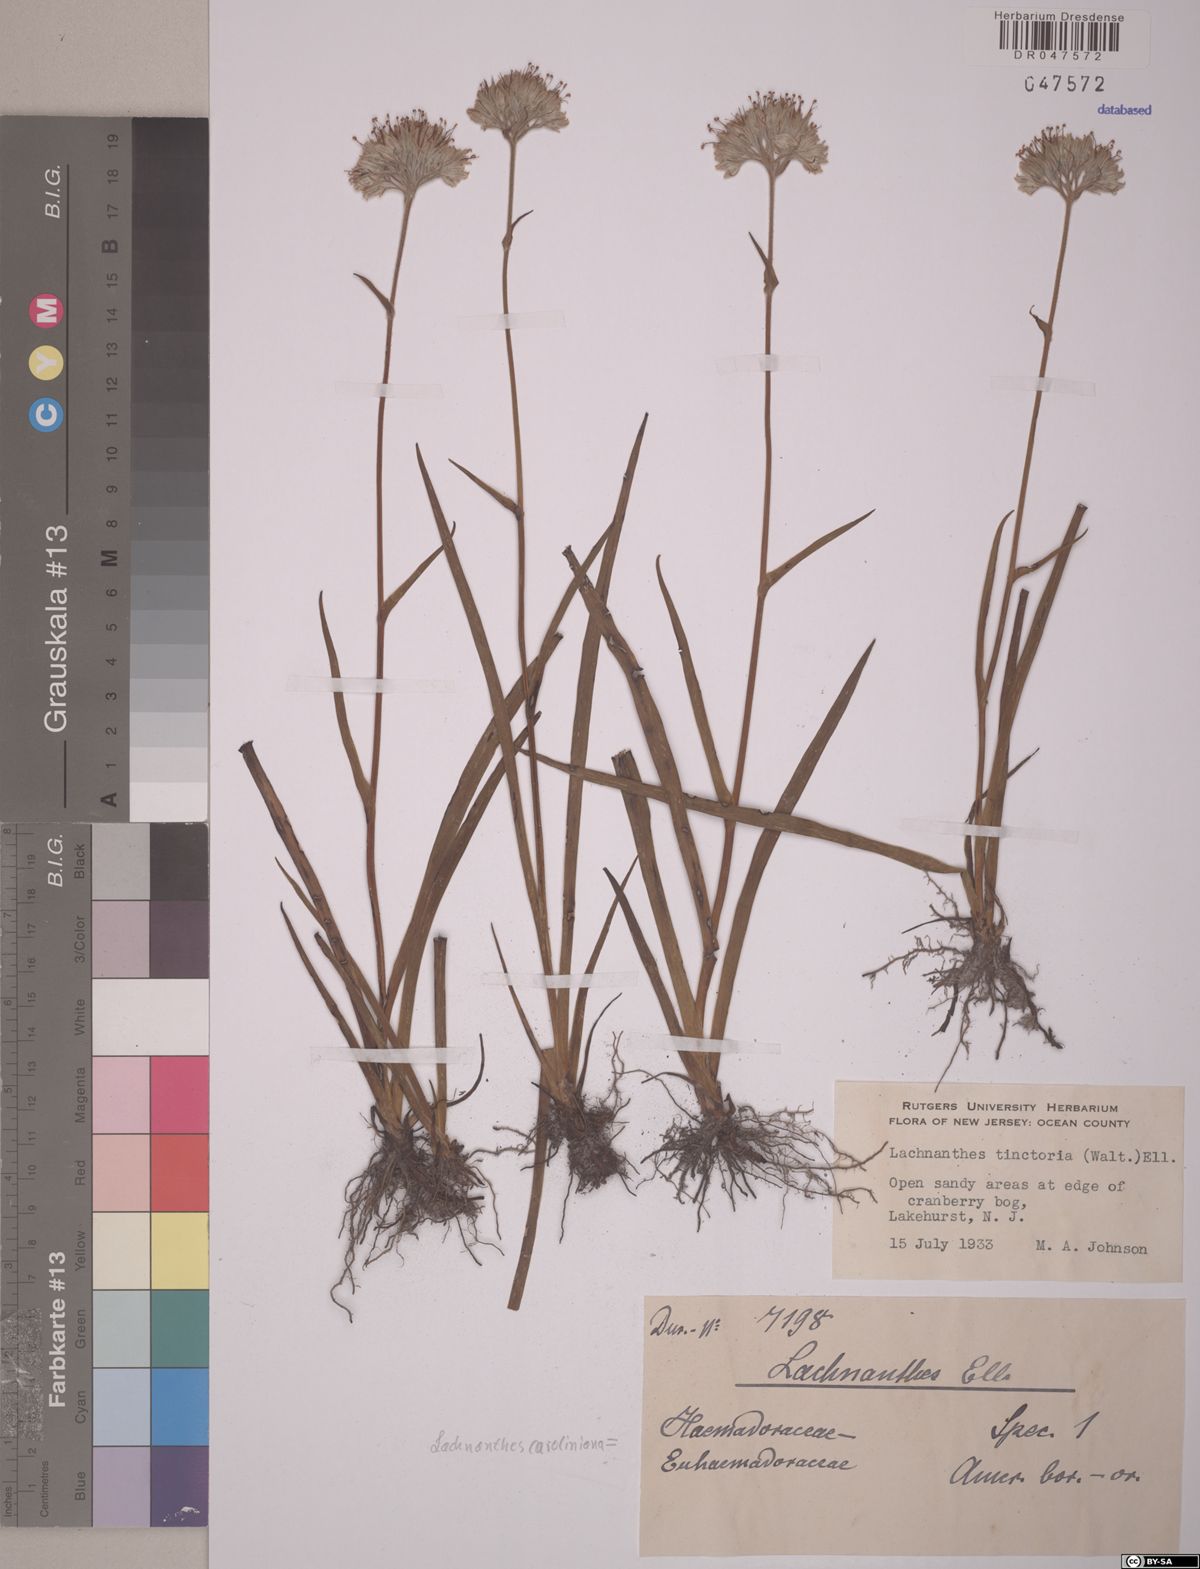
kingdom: Plantae
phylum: Tracheophyta
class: Liliopsida
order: Commelinales
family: Haemodoraceae
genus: Lachnanthes
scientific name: Lachnanthes caroliniana
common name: Carolina redroot
